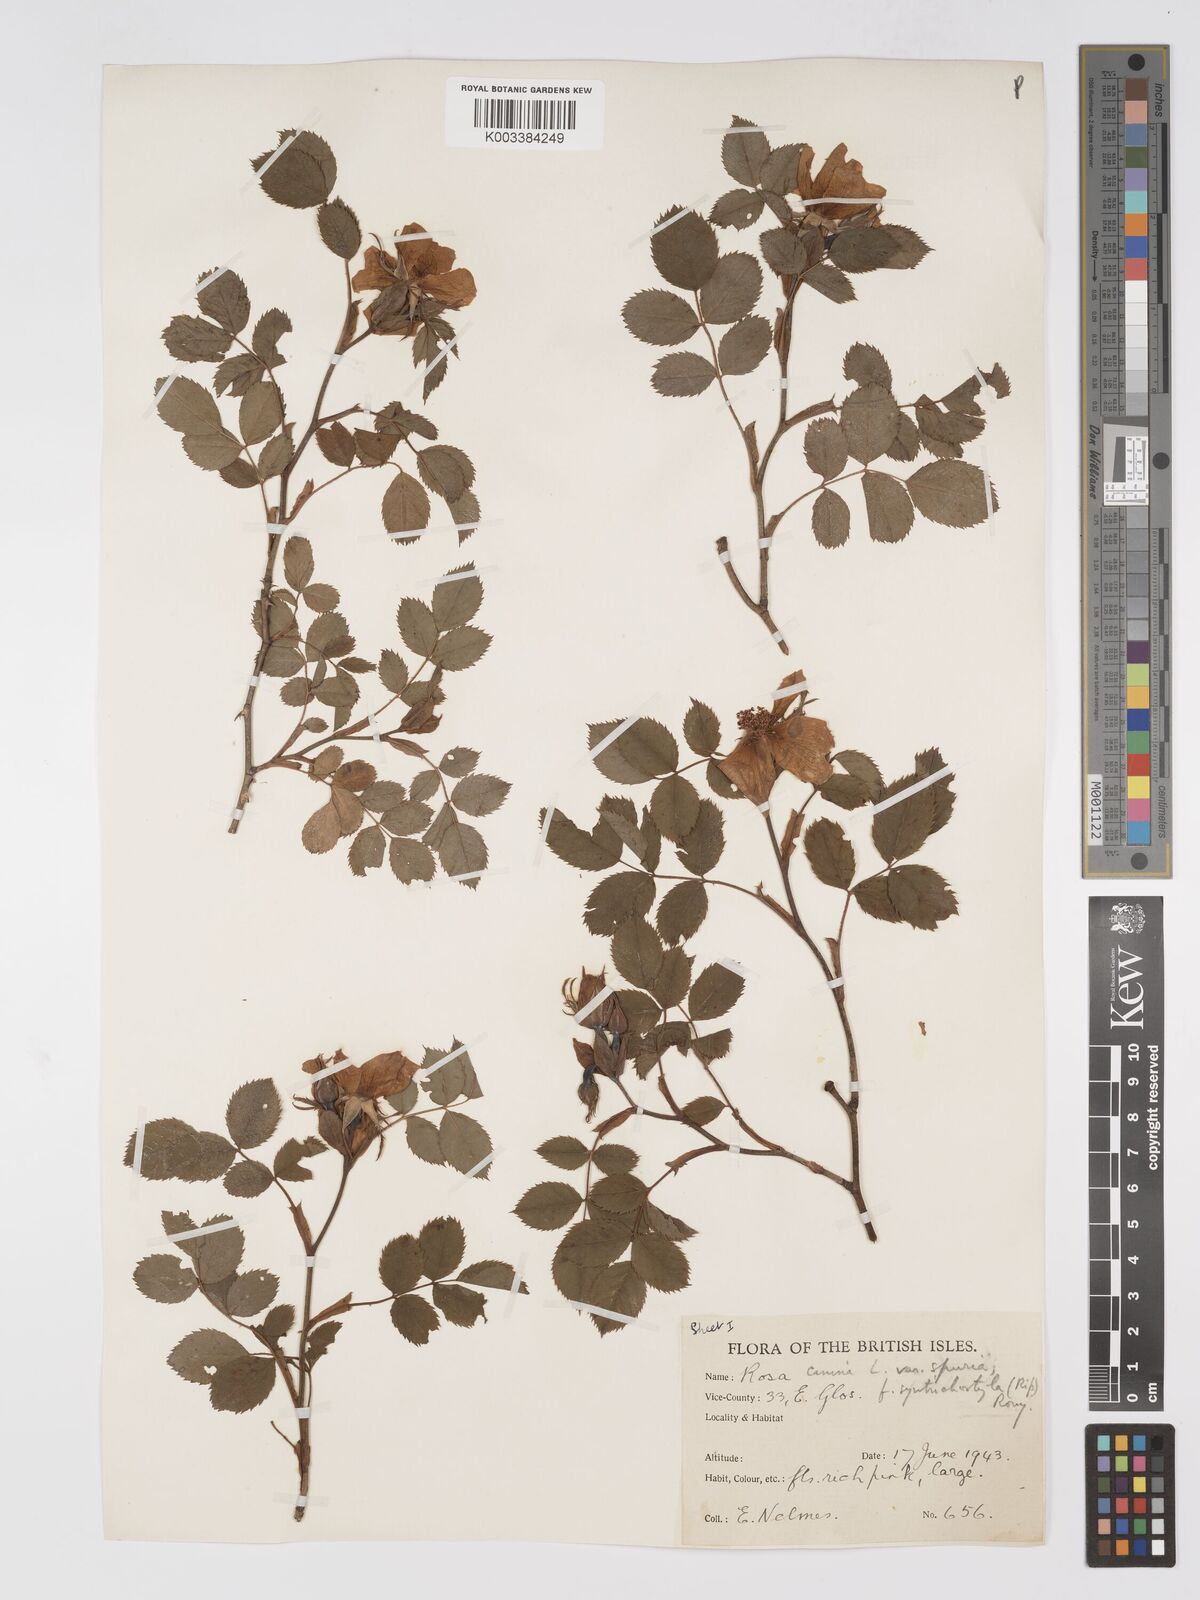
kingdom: Plantae
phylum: Tracheophyta
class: Magnoliopsida
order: Rosales
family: Rosaceae
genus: Rosa
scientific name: Rosa canina
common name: Dog rose
